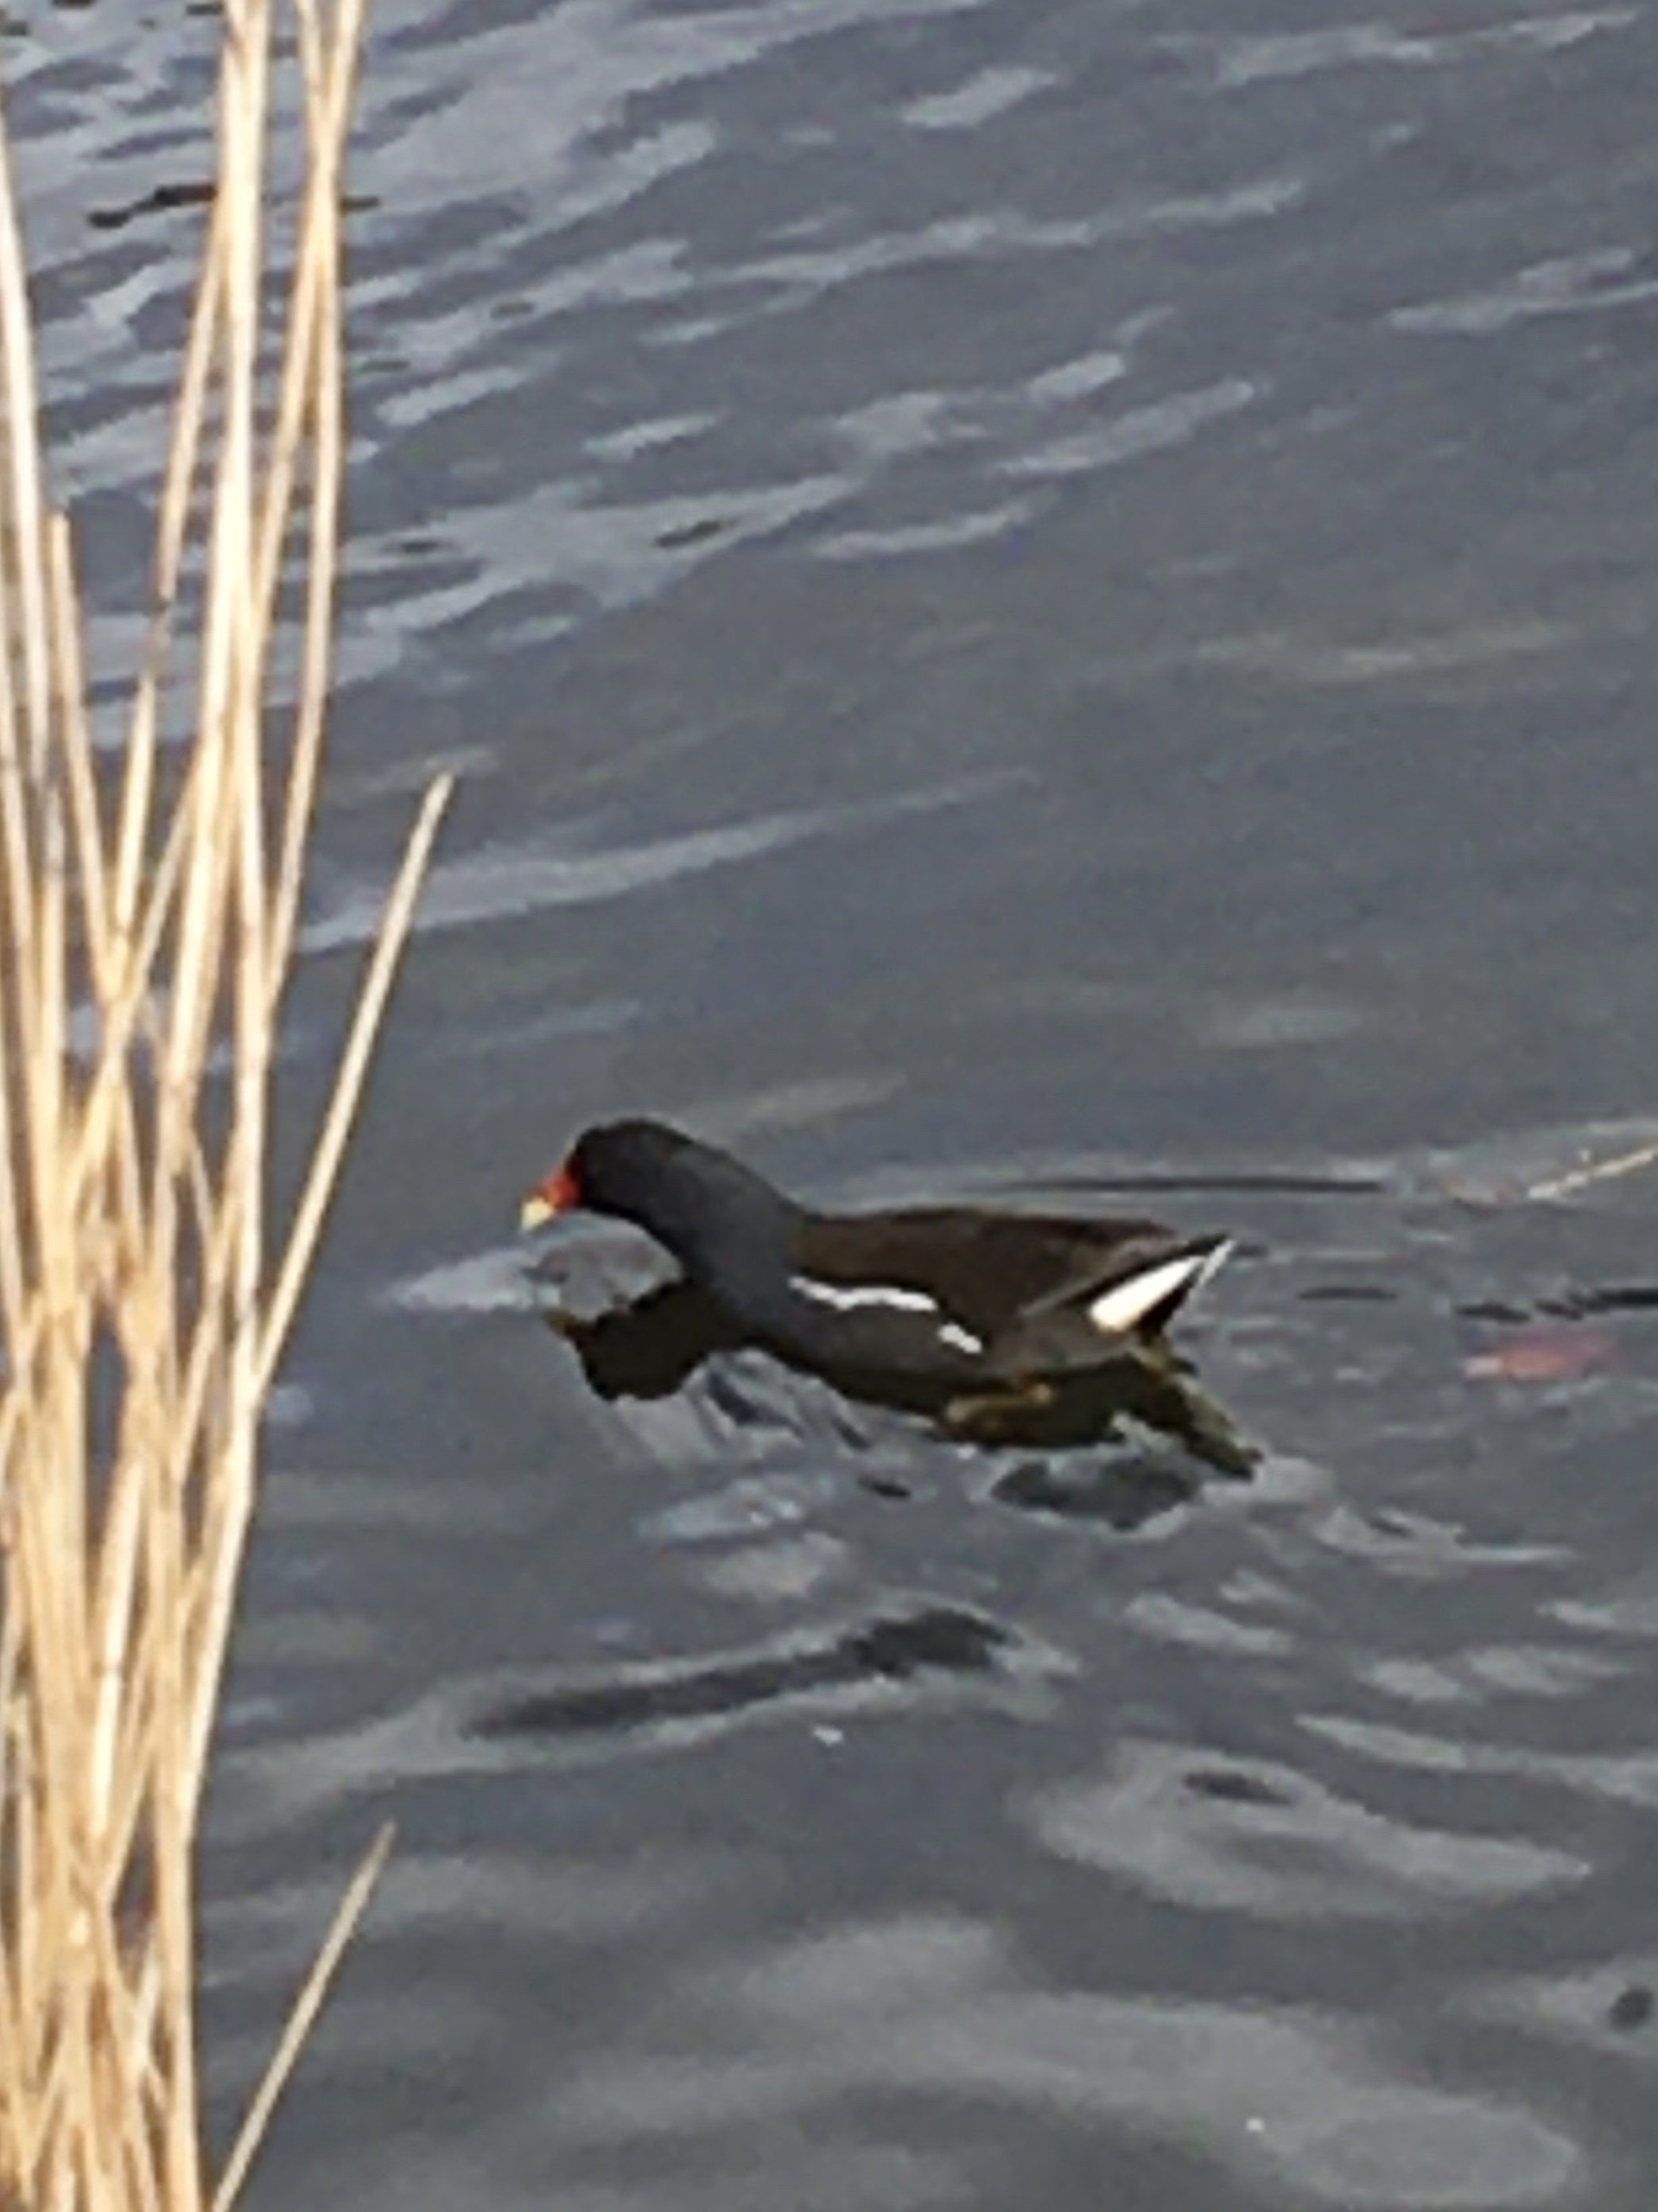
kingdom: Animalia
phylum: Chordata
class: Aves
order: Gruiformes
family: Rallidae
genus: Gallinula
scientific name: Gallinula chloropus
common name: Grønbenet rørhøne
